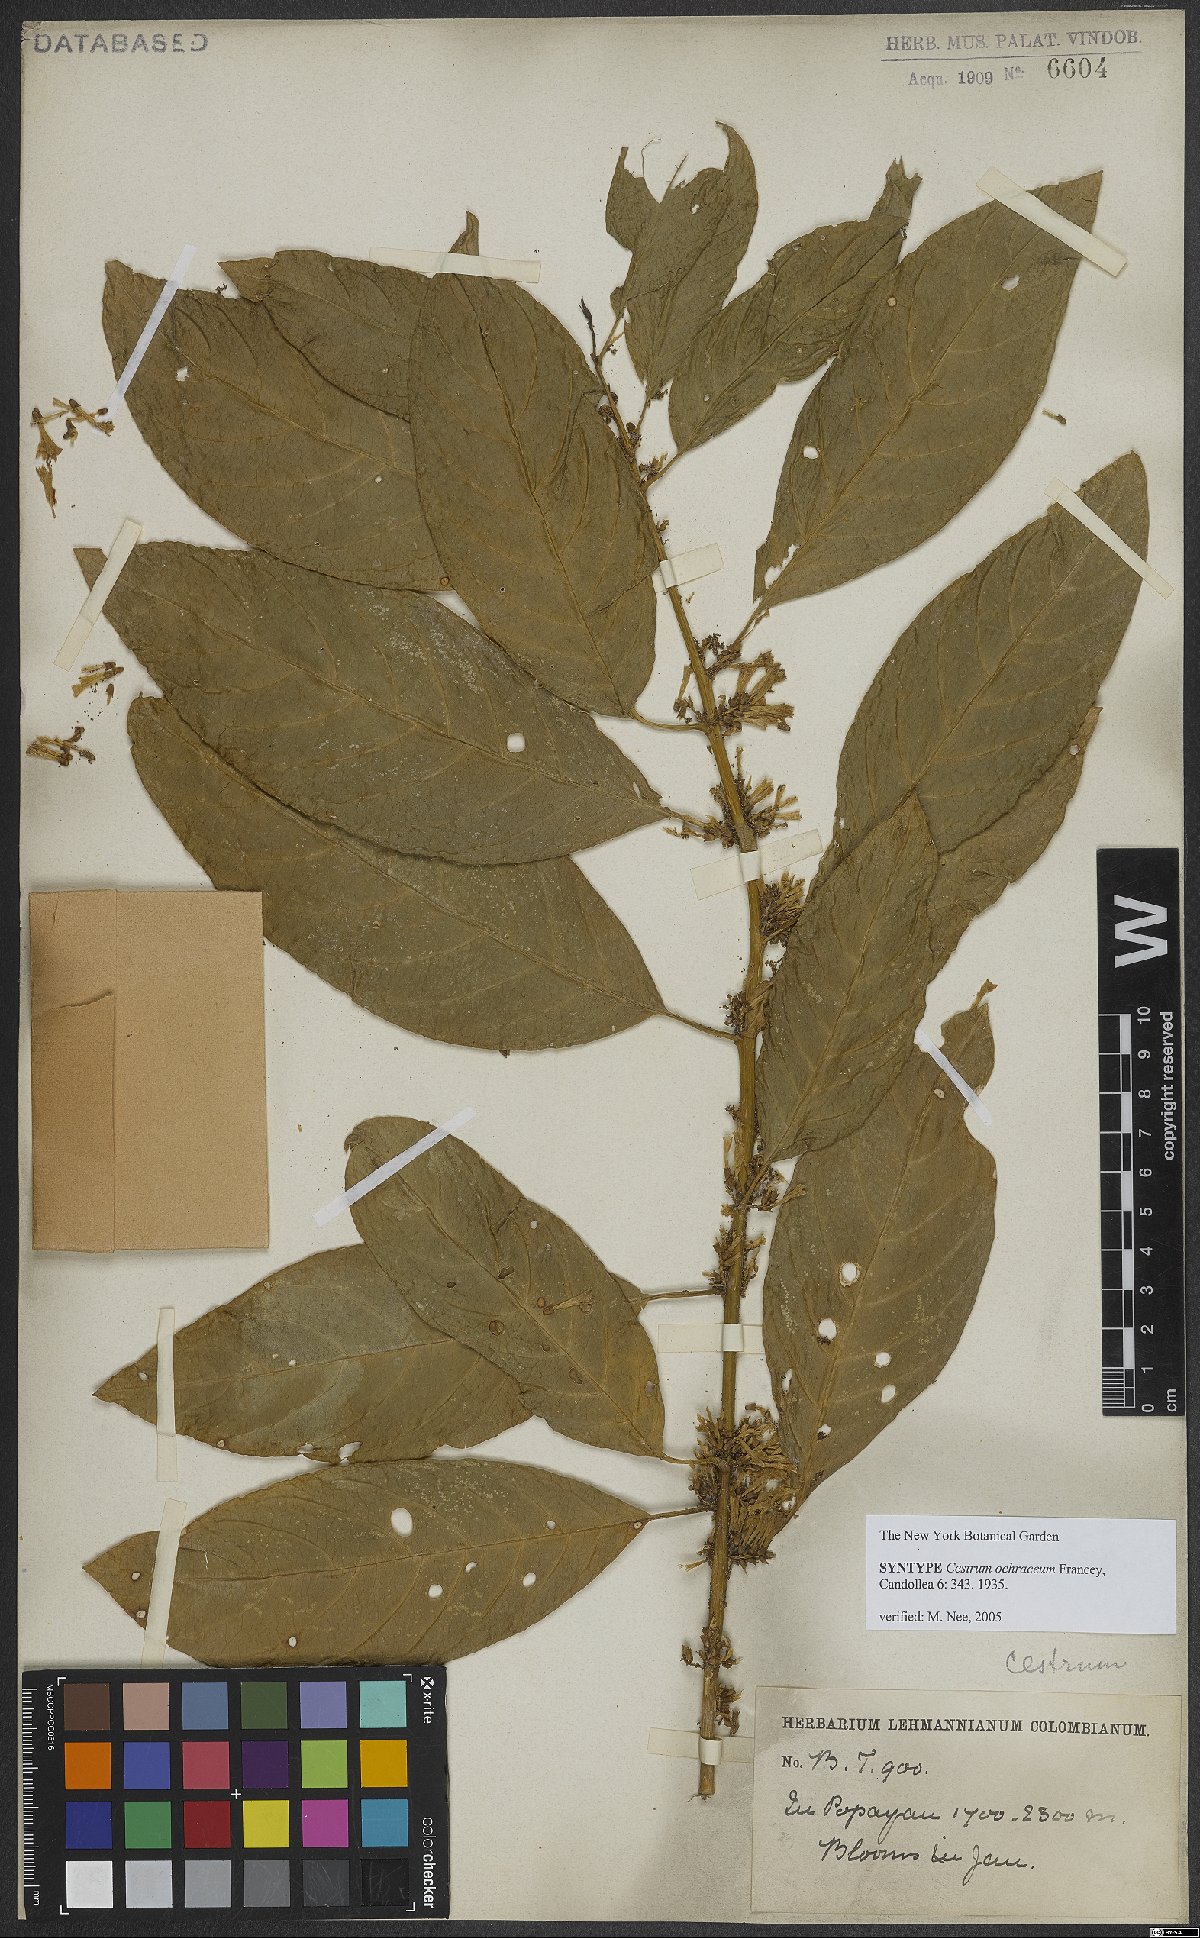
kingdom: Plantae
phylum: Tracheophyta
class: Magnoliopsida
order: Solanales
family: Solanaceae
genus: Cestrum
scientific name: Cestrum ochraceum
